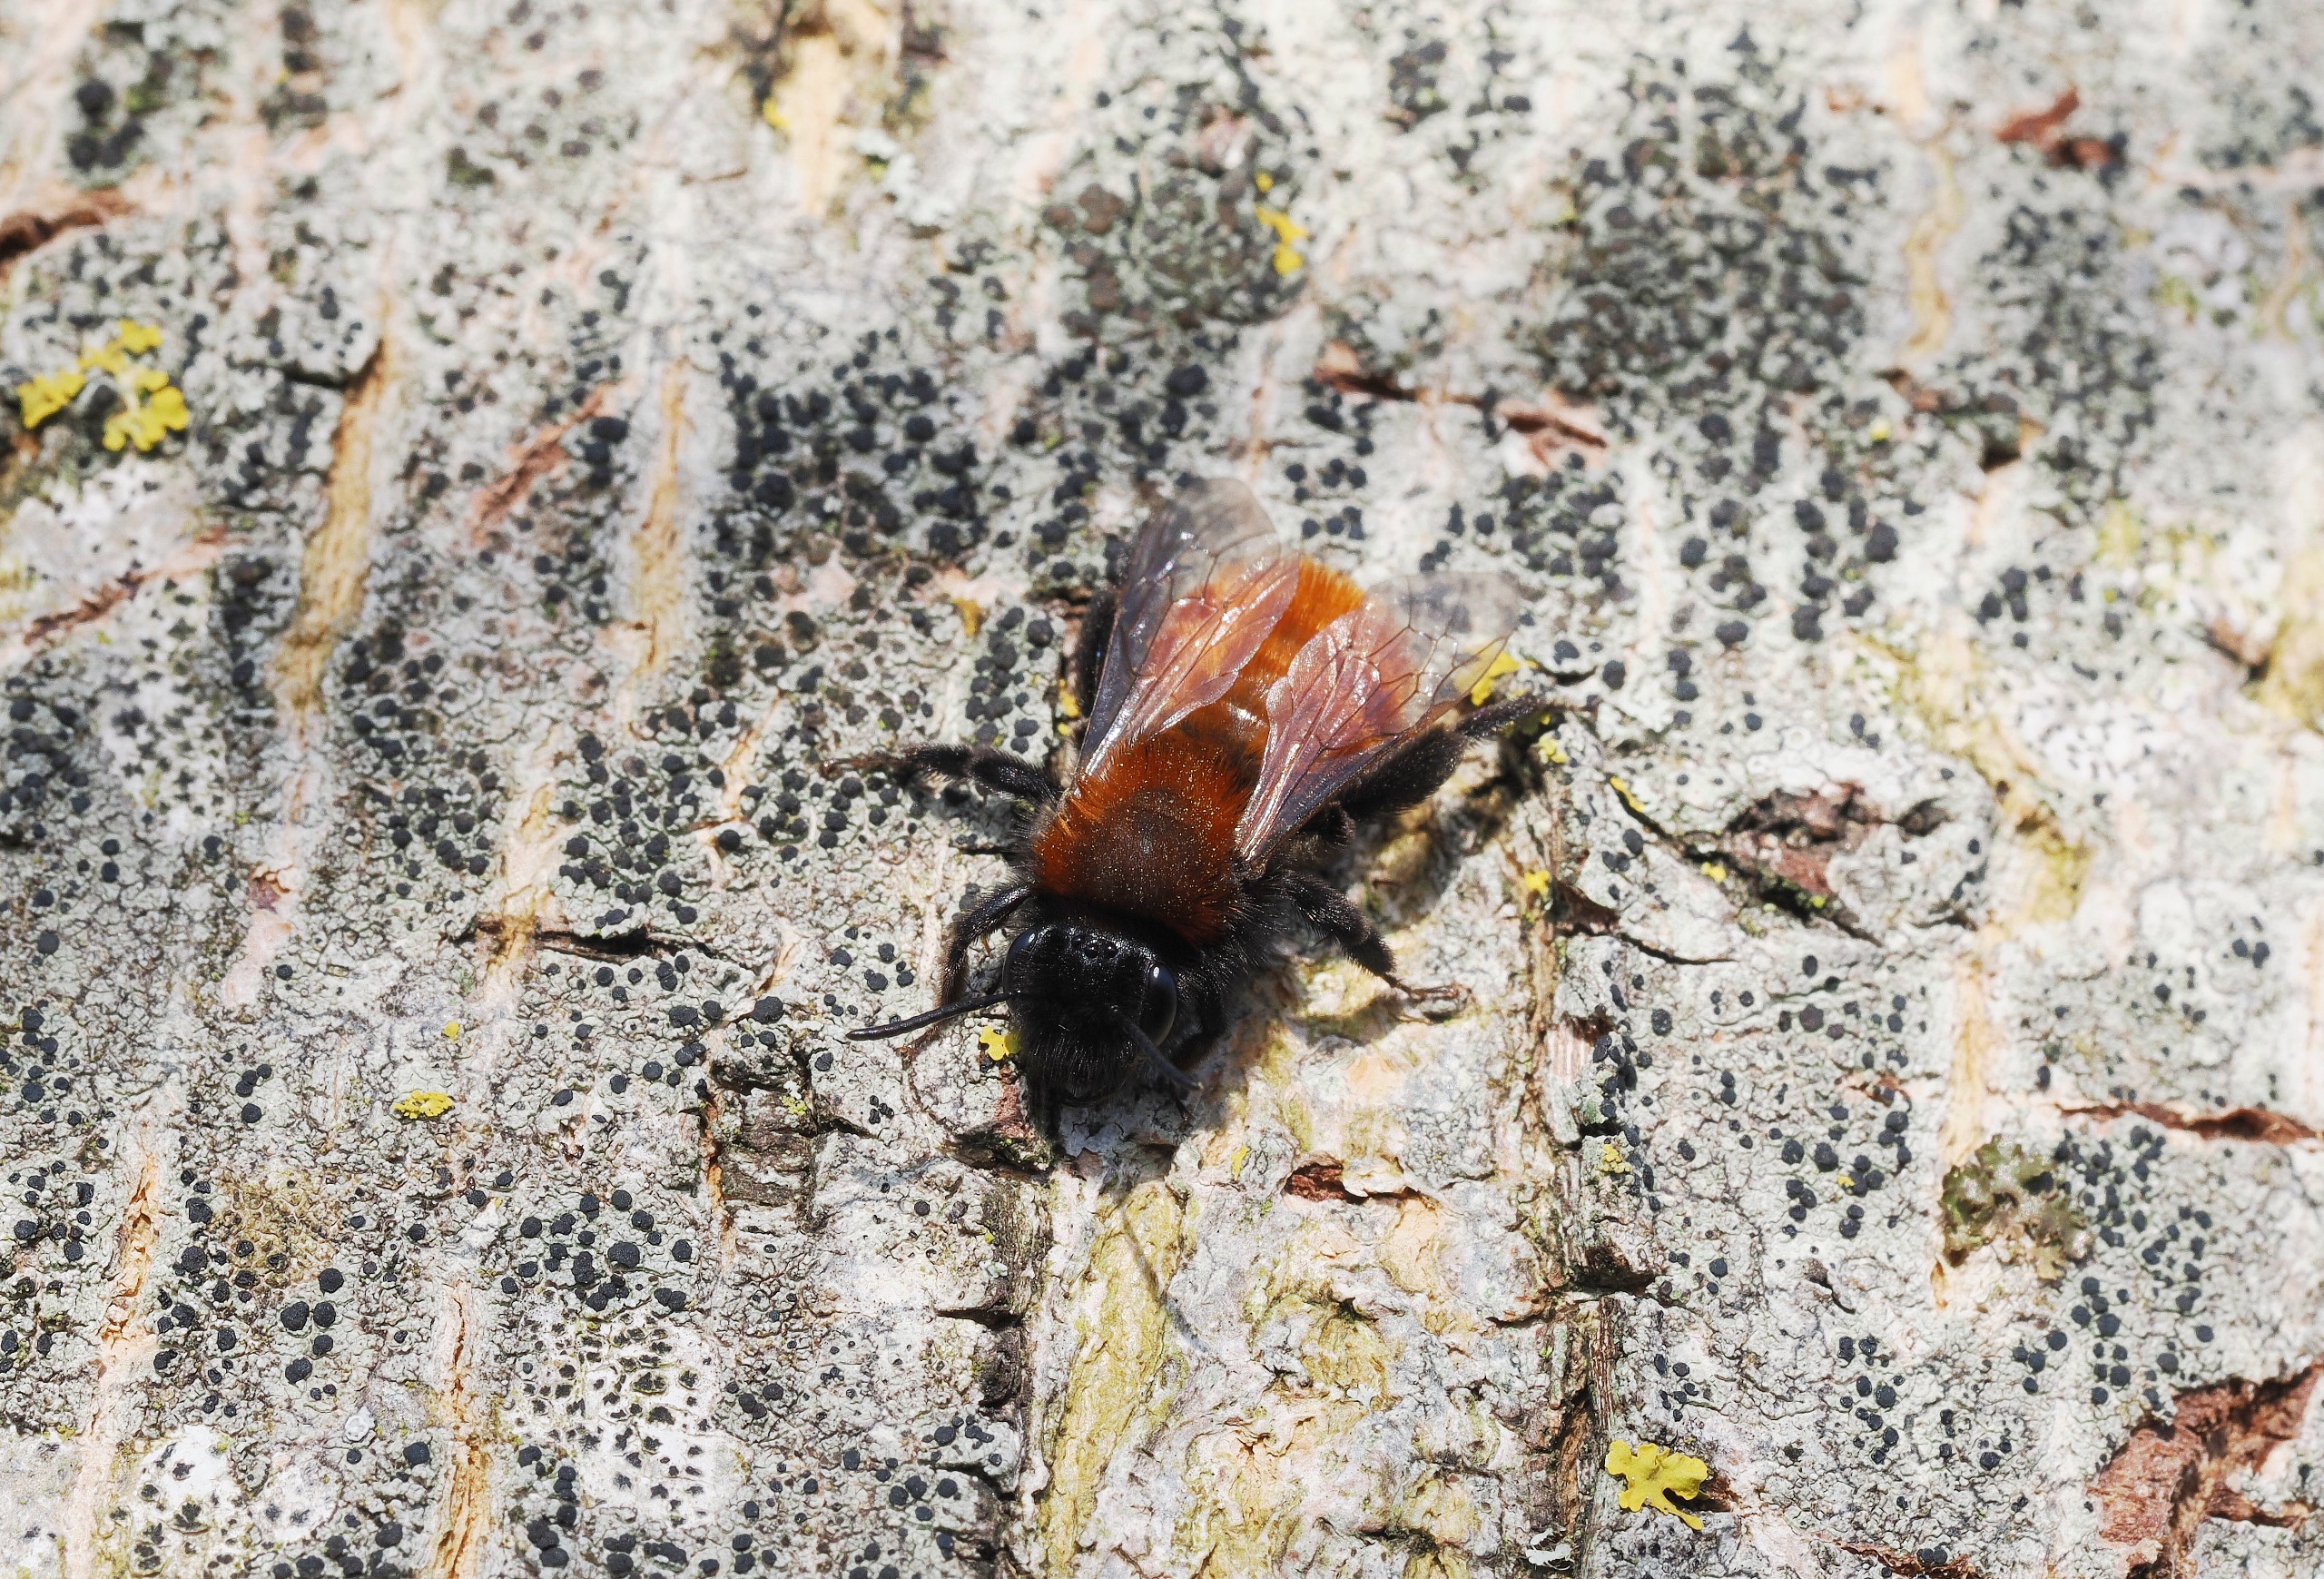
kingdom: Animalia
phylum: Arthropoda
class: Insecta
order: Hymenoptera
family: Andrenidae
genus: Andrena
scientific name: Andrena fulva
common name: Rødpelset jordbi
